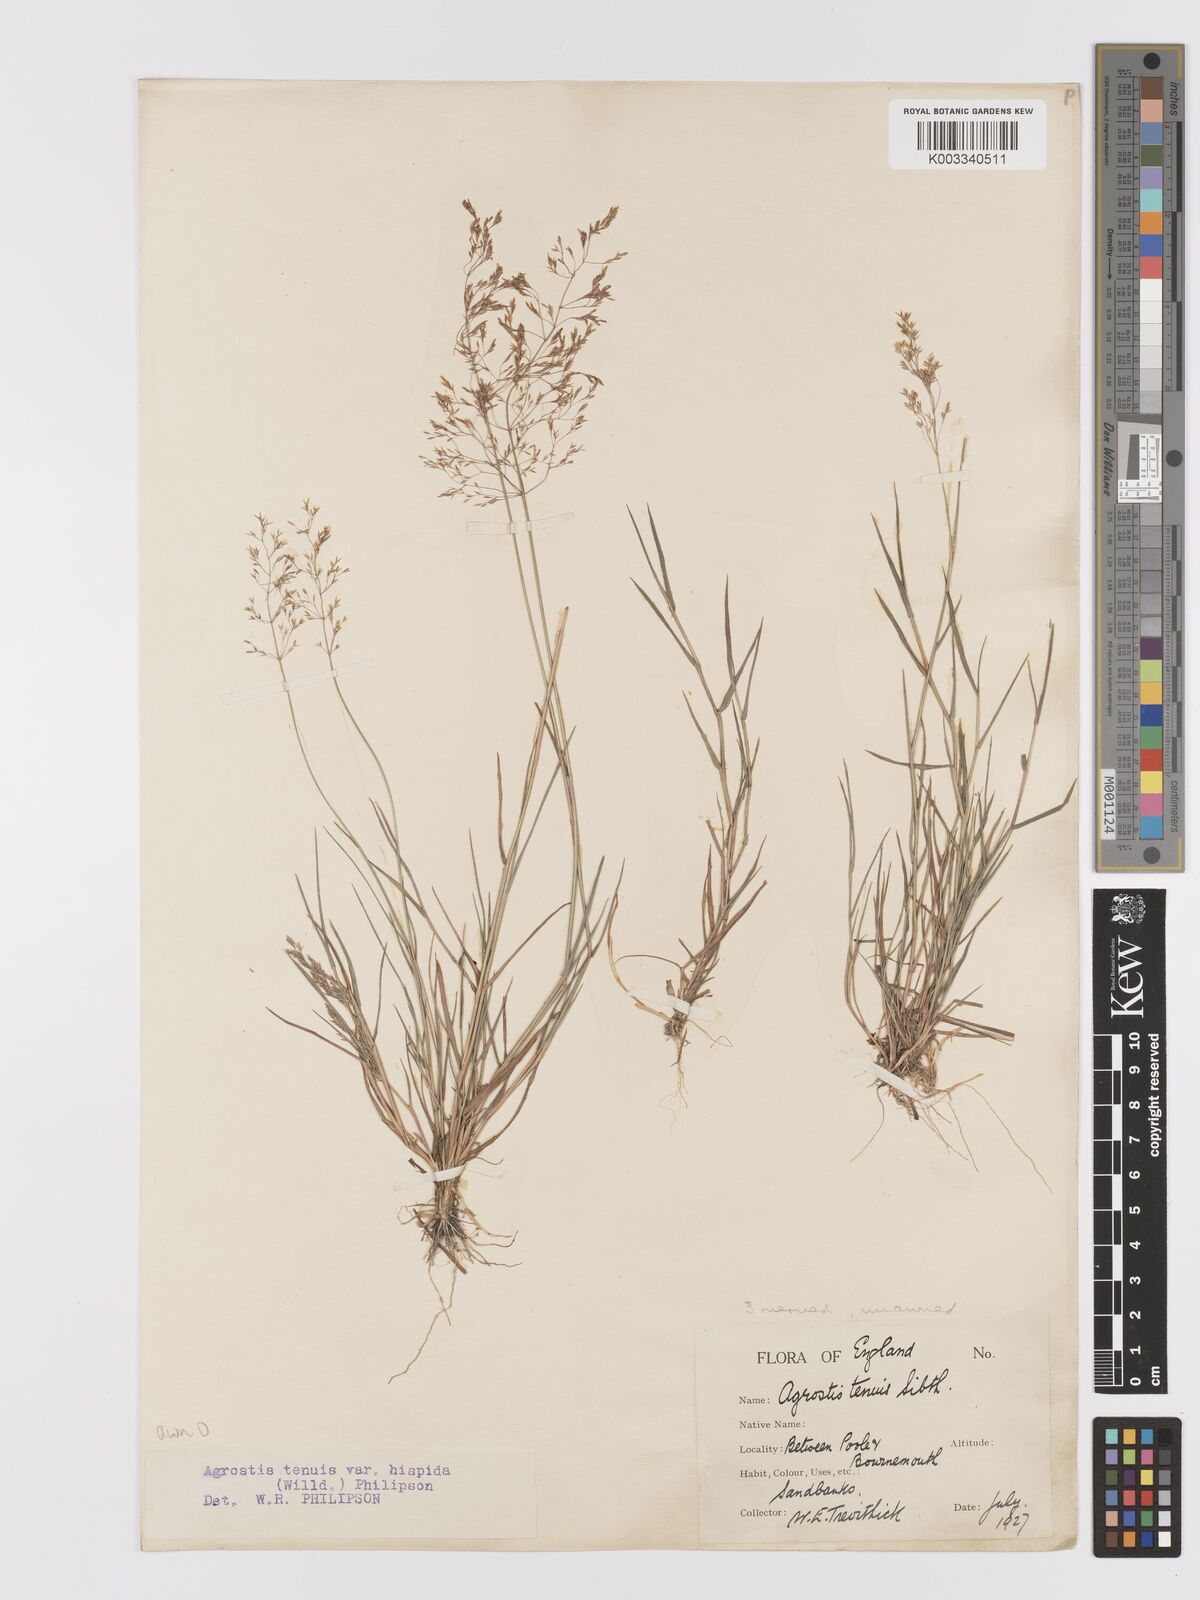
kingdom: Plantae
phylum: Tracheophyta
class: Liliopsida
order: Poales
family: Poaceae
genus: Agrostis
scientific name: Agrostis capillaris
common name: Colonial bentgrass
